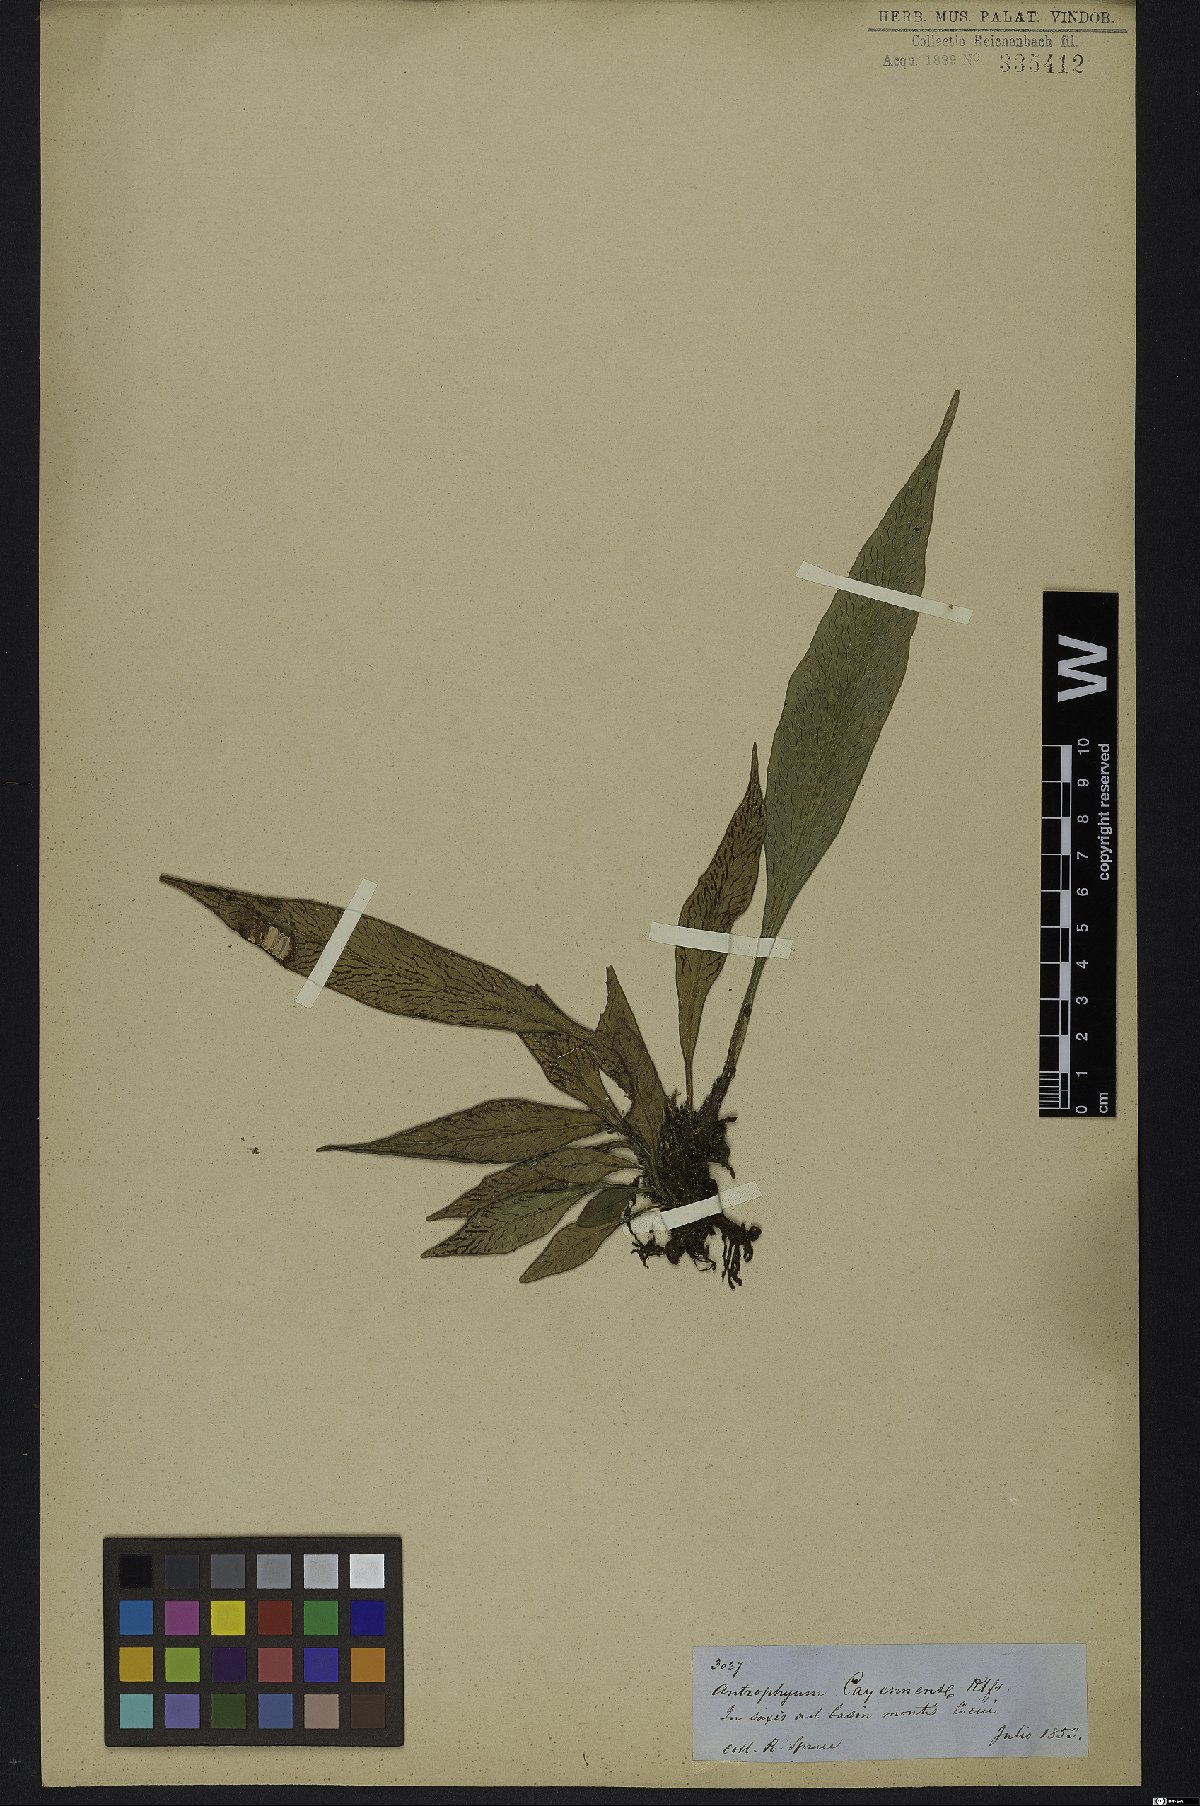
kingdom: Plantae
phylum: Tracheophyta
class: Polypodiopsida
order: Polypodiales
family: Pteridaceae
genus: Polytaenium
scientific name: Polytaenium cajenense
